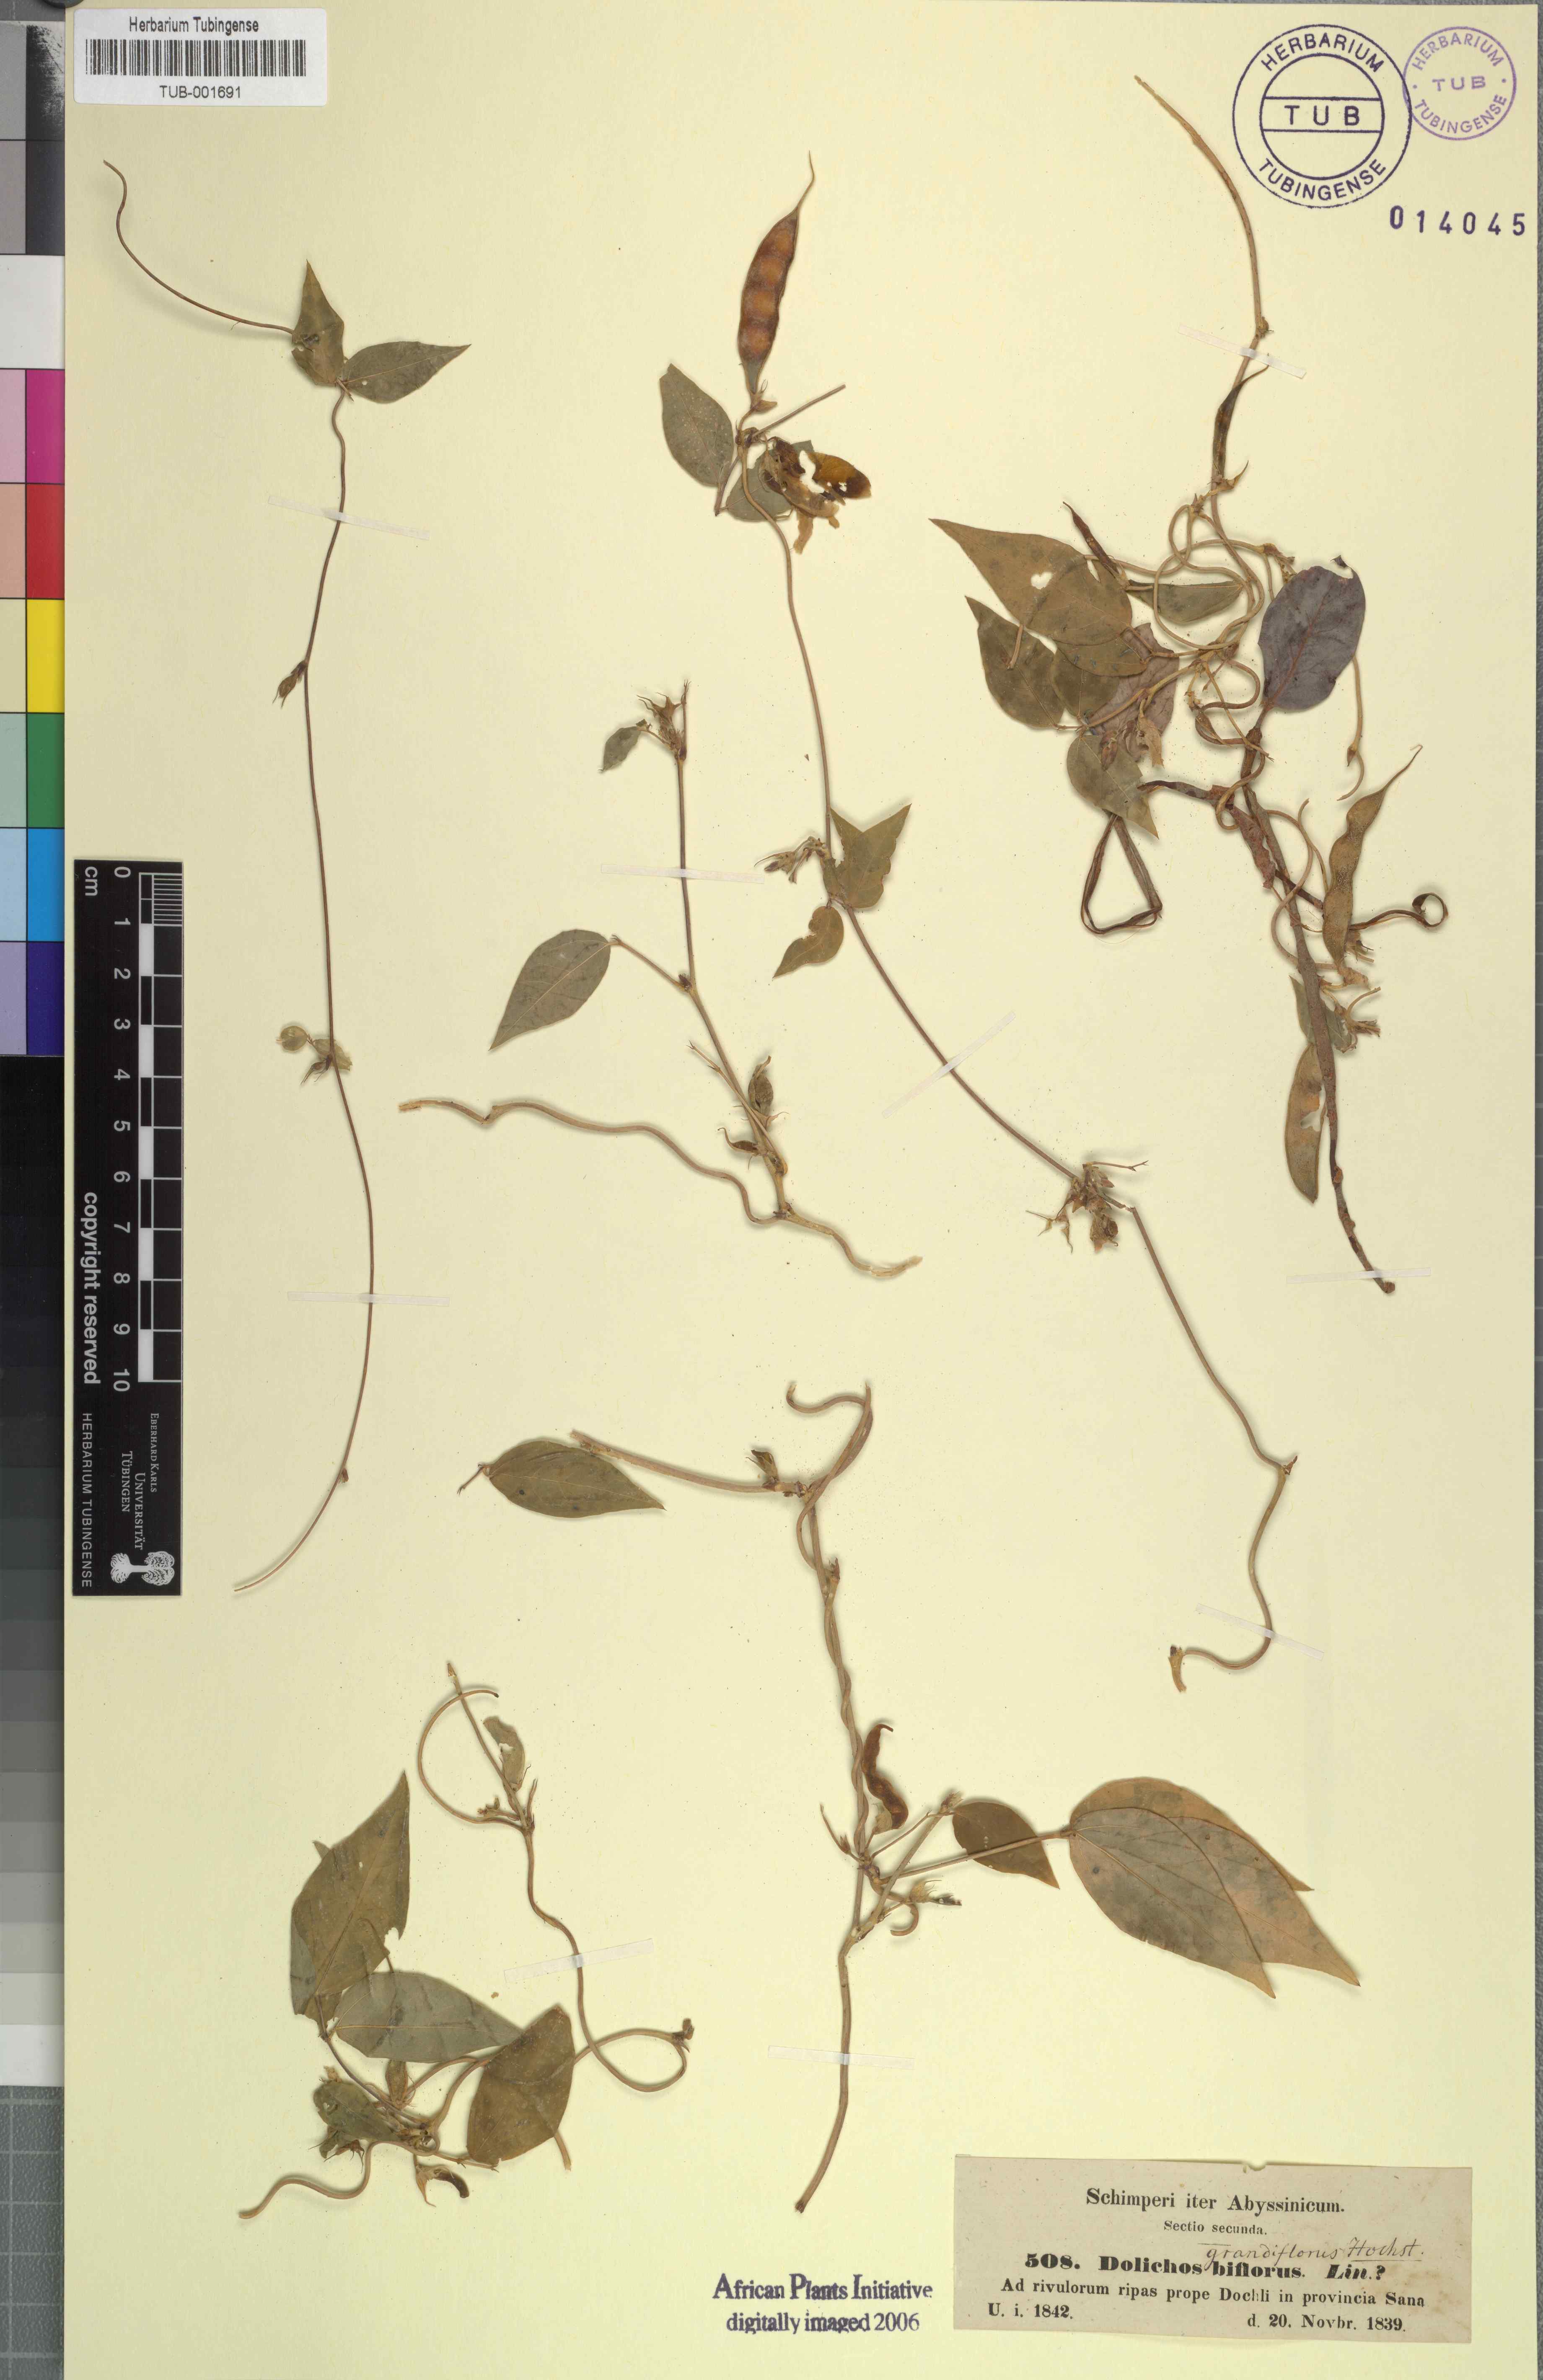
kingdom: Plantae
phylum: Tracheophyta
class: Magnoliopsida
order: Fabales
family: Fabaceae
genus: Pueraria
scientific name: Pueraria montana
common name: Kudzu
